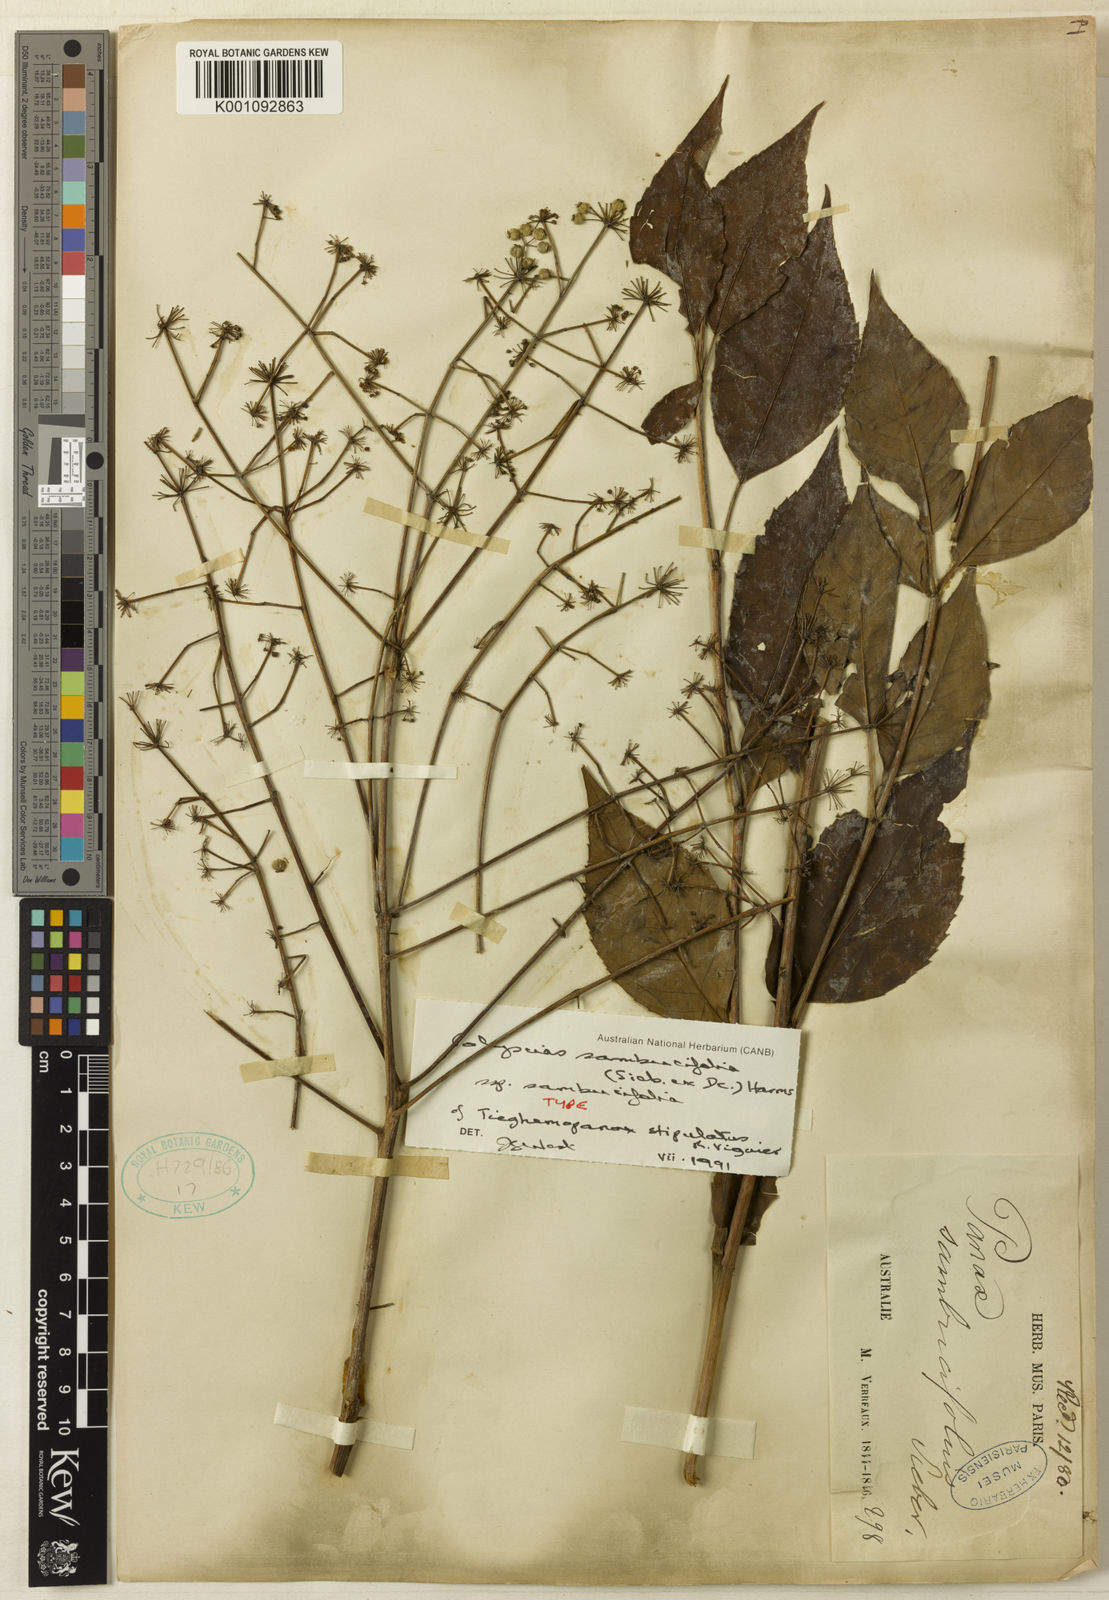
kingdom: Plantae
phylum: Tracheophyta
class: Magnoliopsida
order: Apiales
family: Araliaceae
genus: Polyscias
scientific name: Polyscias sambucifolia
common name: Elderberry-ash
